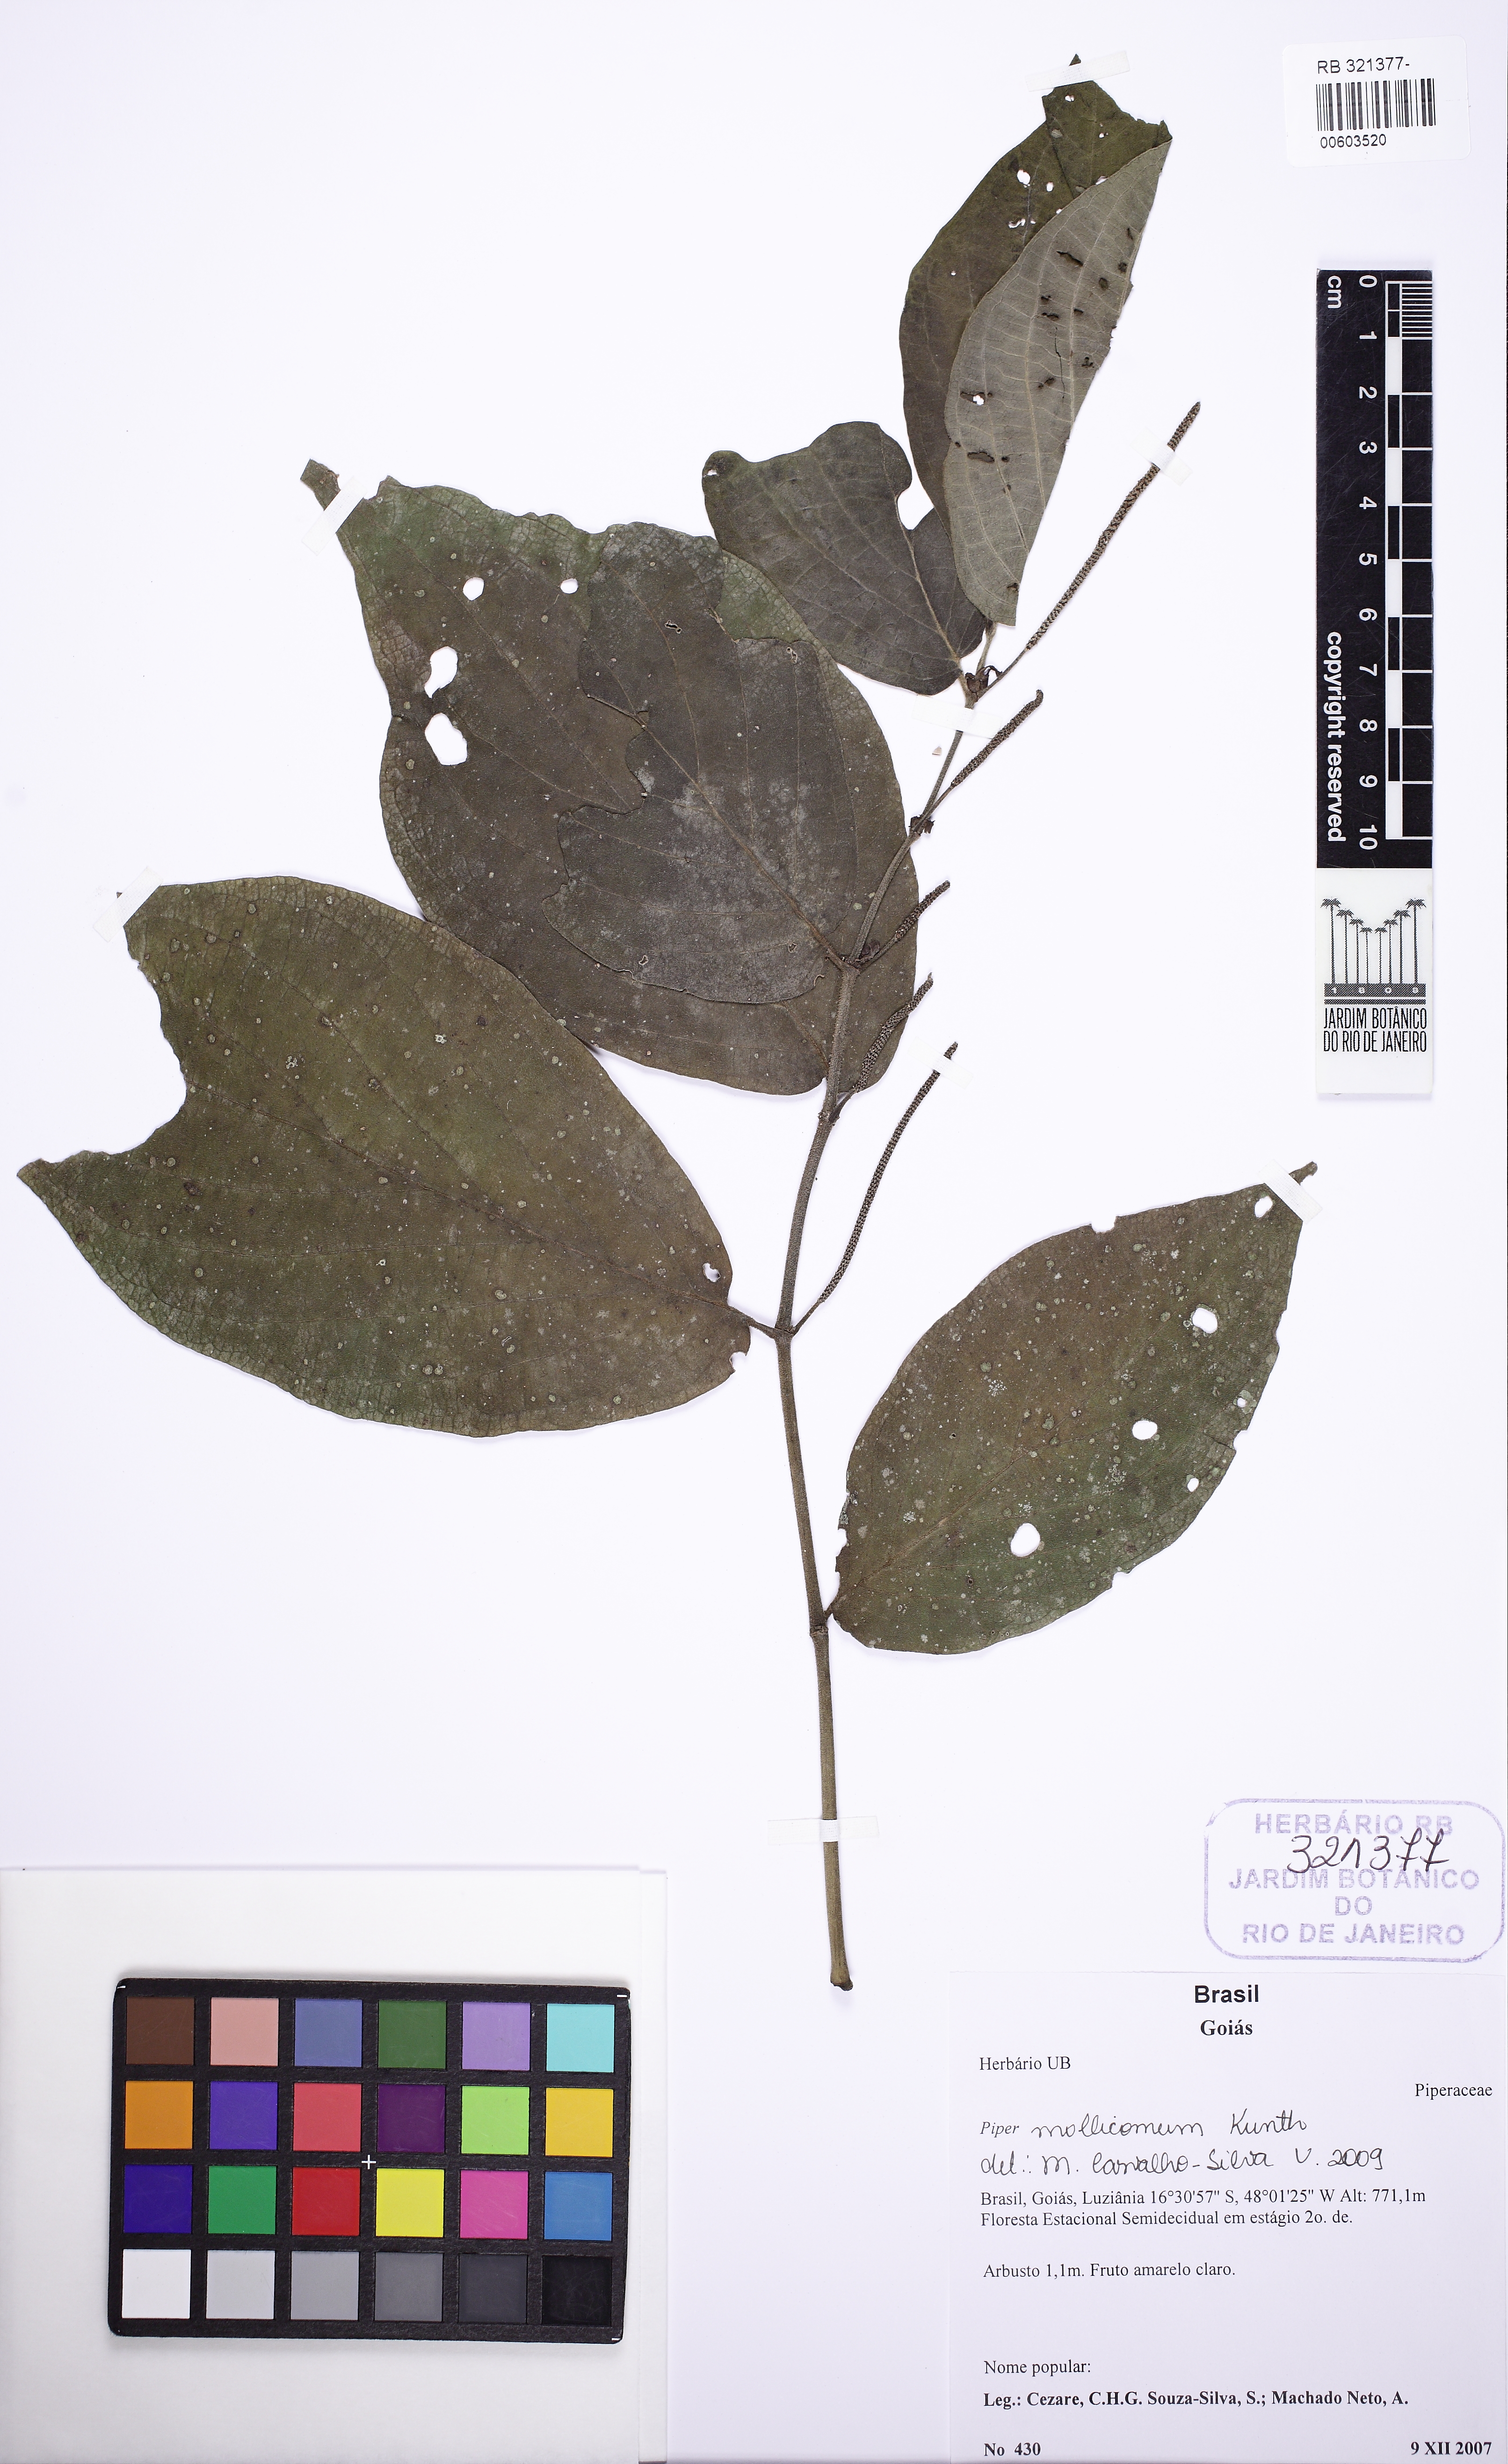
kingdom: Plantae
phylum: Tracheophyta
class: Magnoliopsida
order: Piperales
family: Piperaceae
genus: Piper
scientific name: Piper mollicomum
